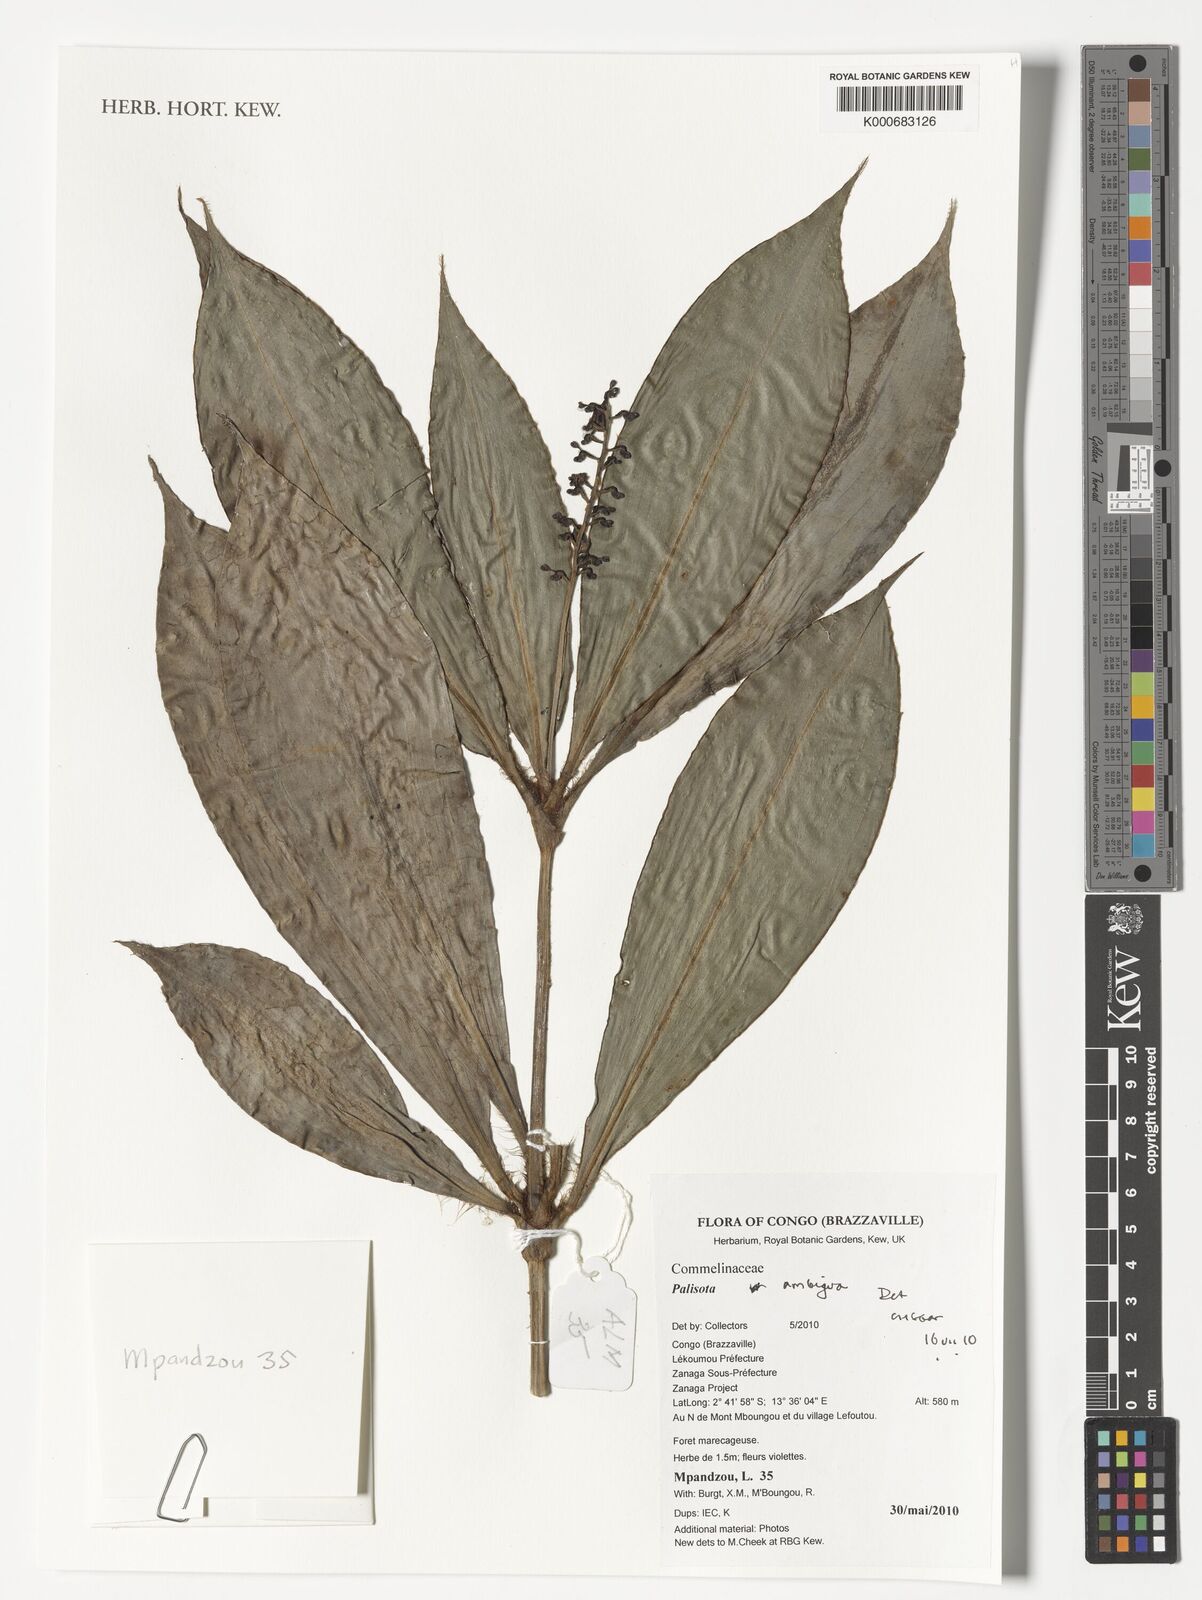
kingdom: Plantae
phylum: Tracheophyta
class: Liliopsida
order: Commelinales
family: Commelinaceae
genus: Palisota
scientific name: Palisota ambigua
